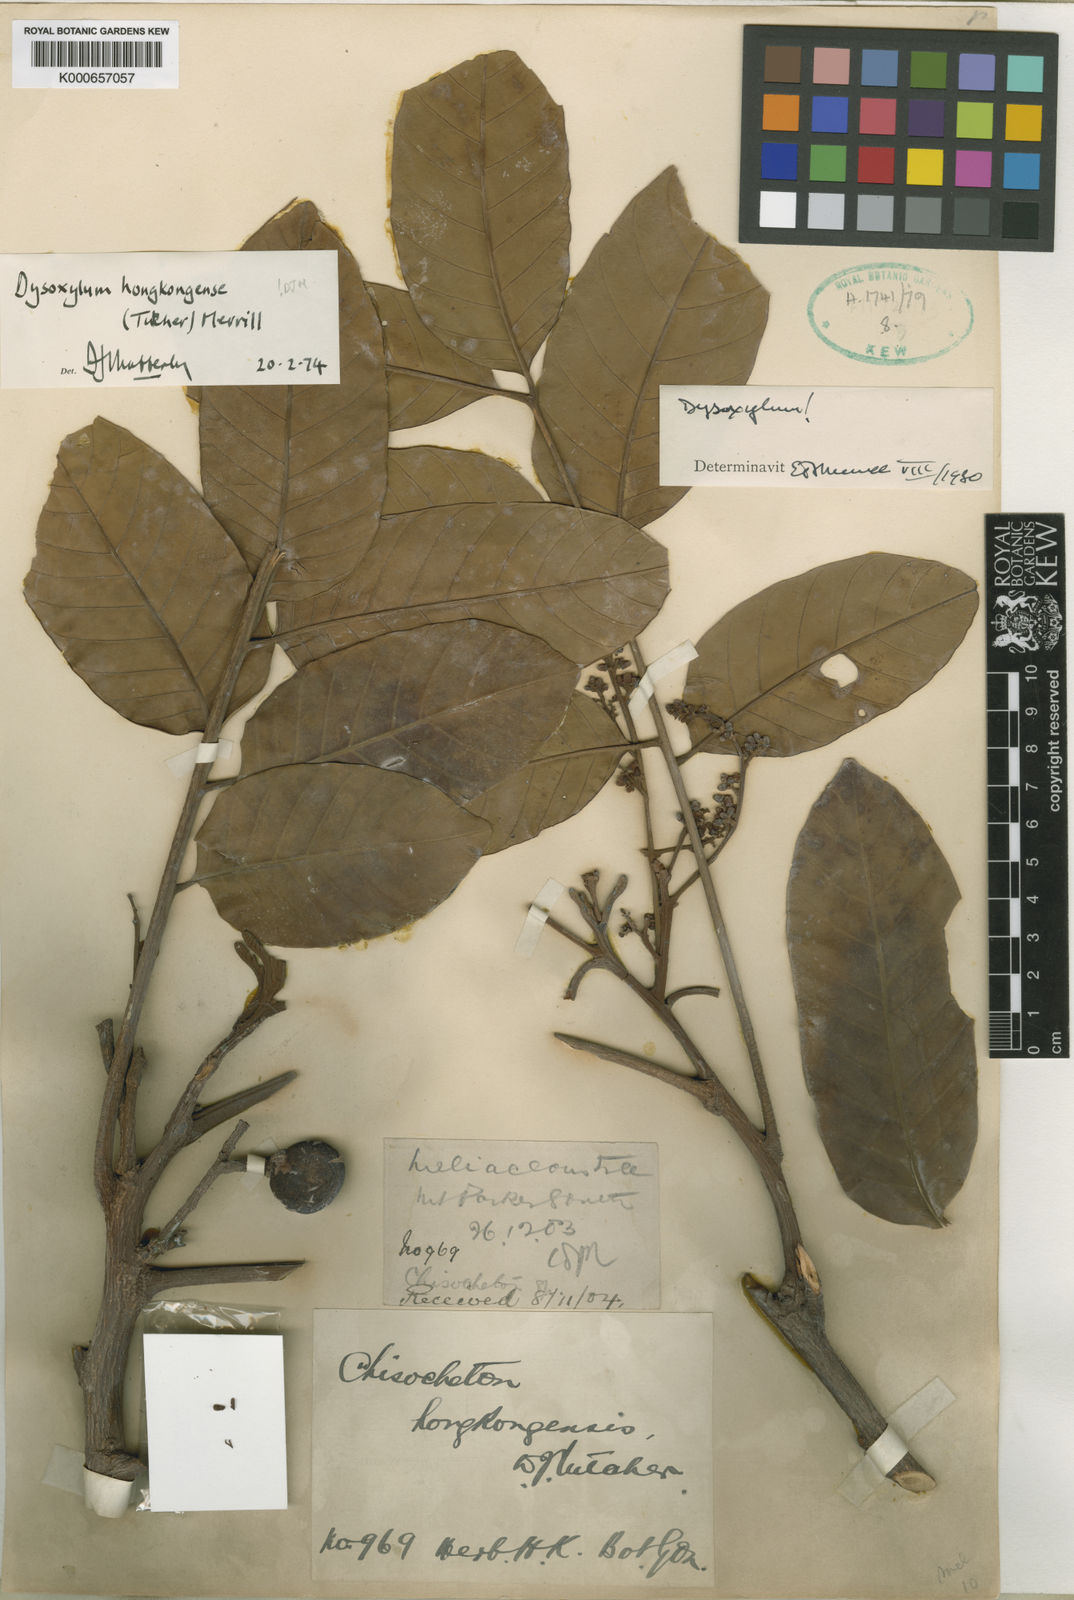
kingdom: Plantae
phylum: Tracheophyta
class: Magnoliopsida
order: Sapindales
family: Meliaceae
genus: Prasoxylon
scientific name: Prasoxylon hongkongense
